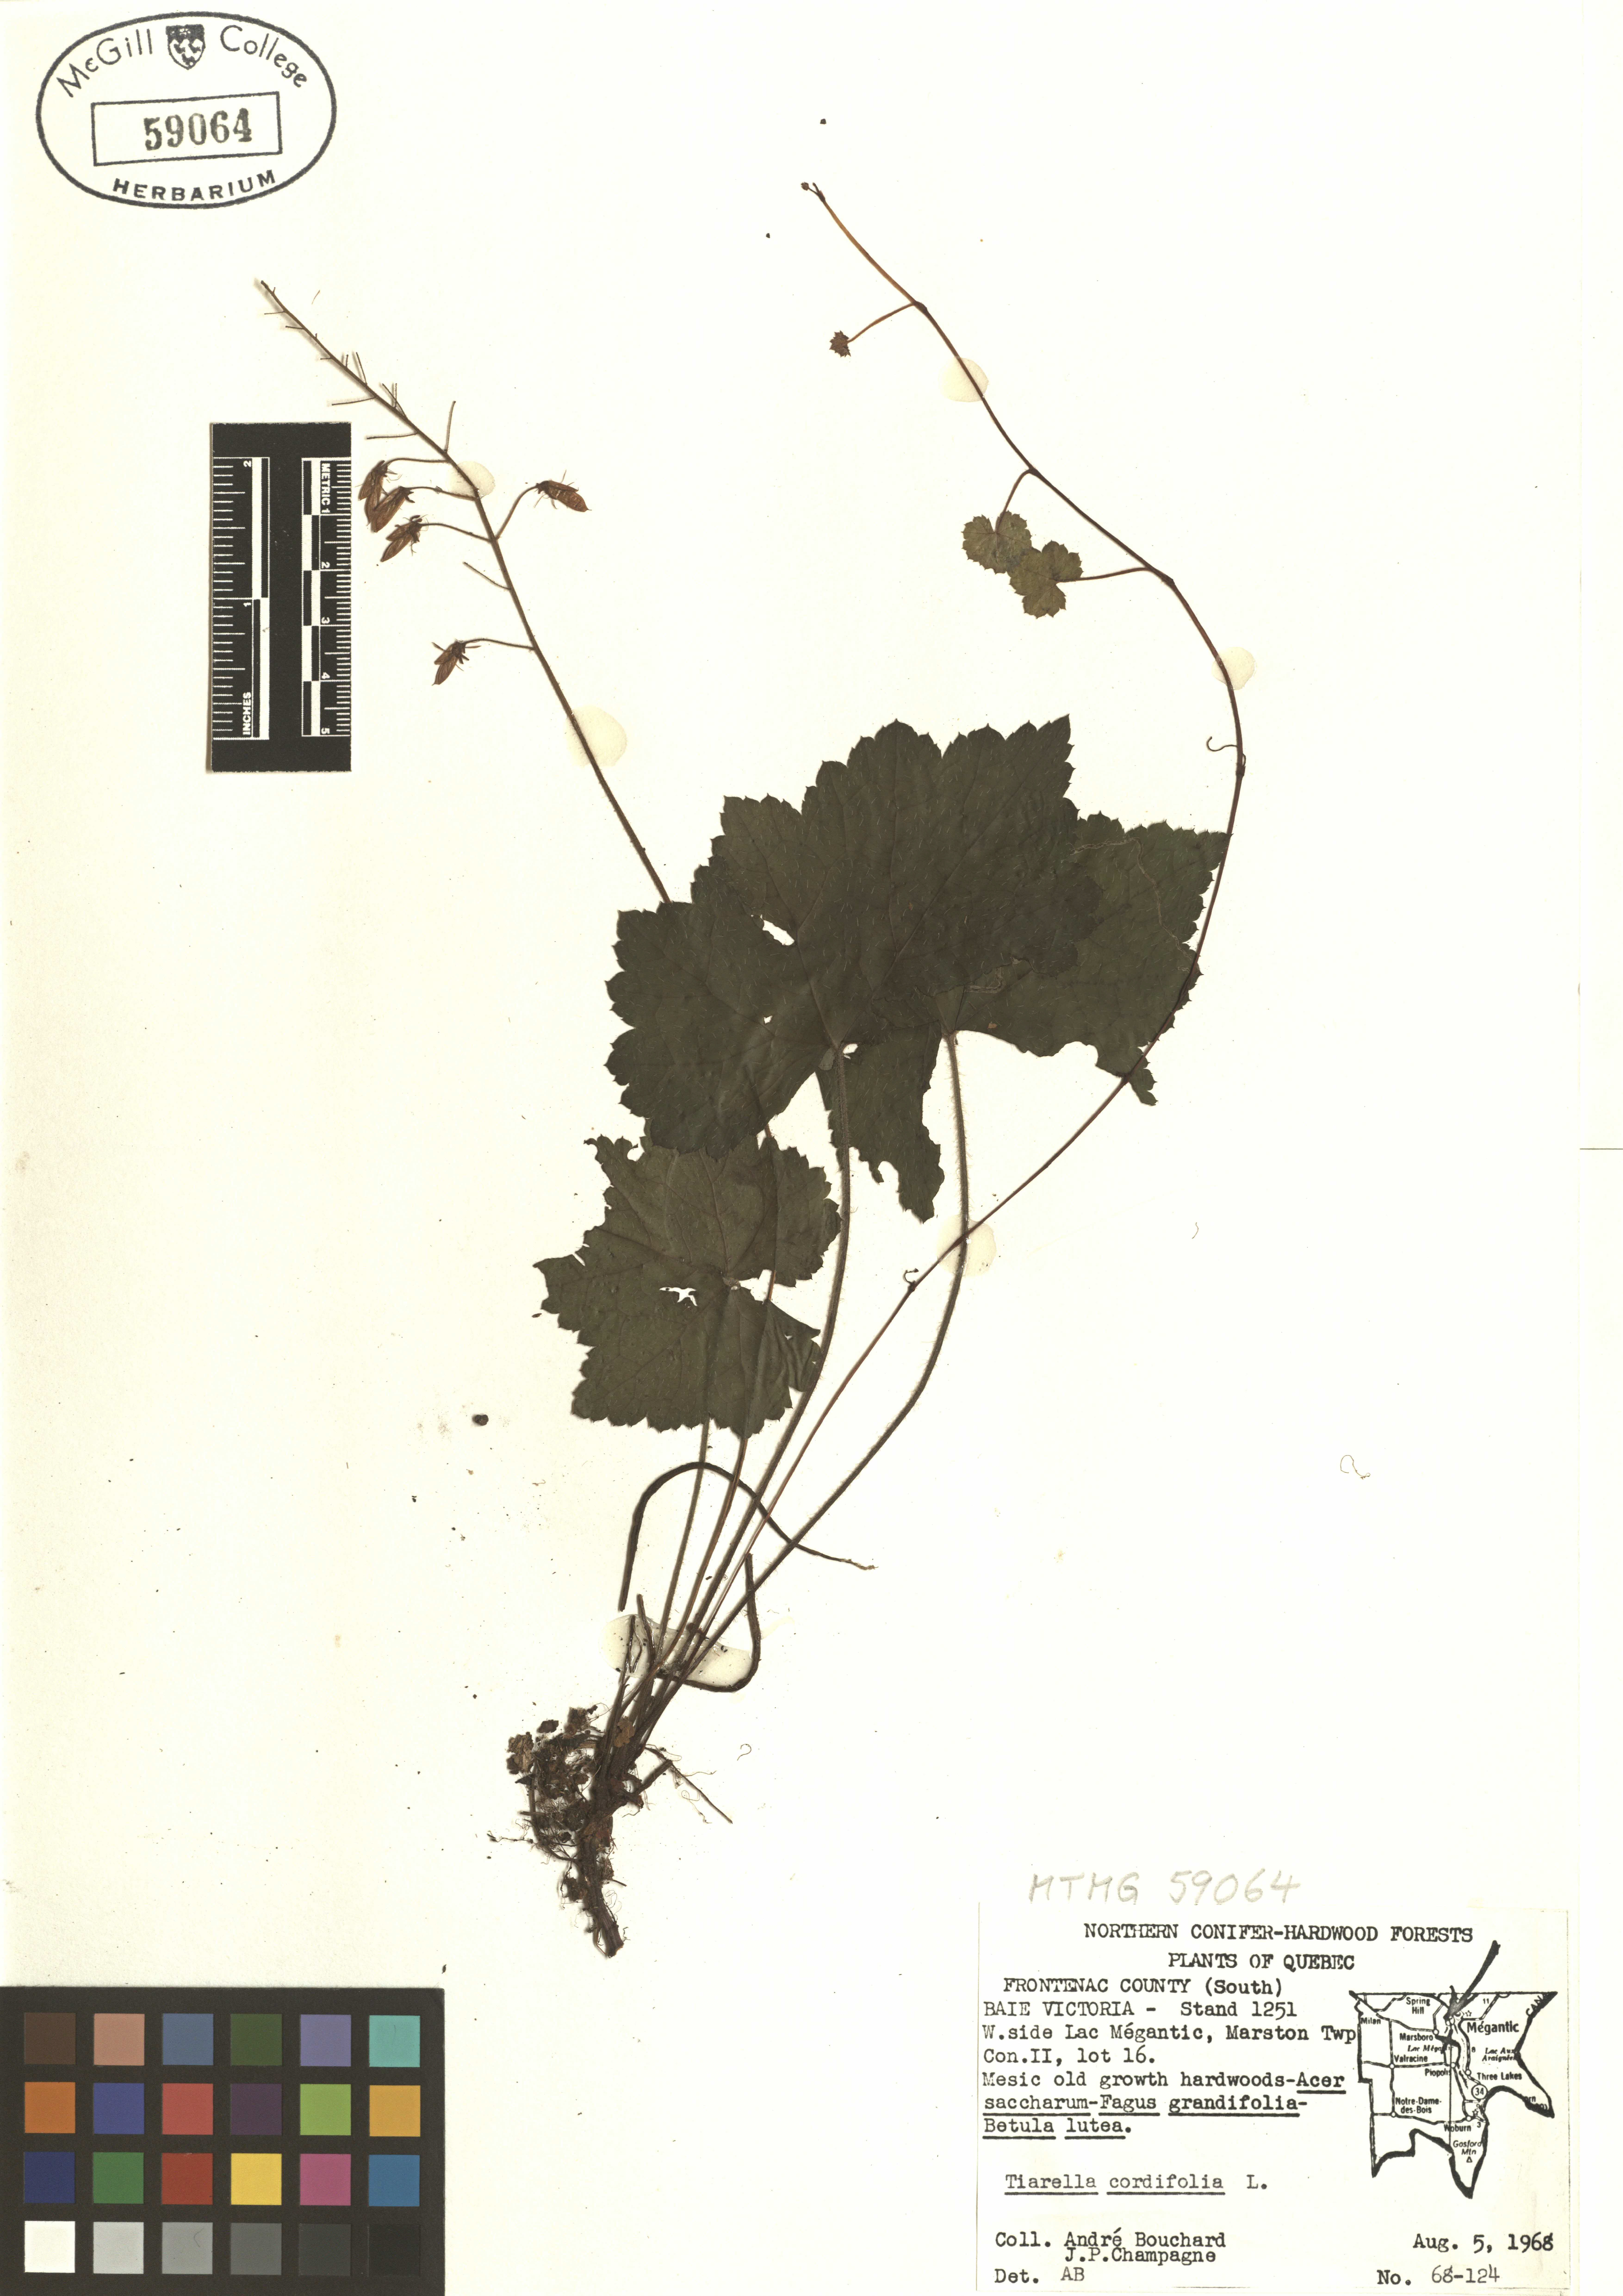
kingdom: Plantae
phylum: Tracheophyta
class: Magnoliopsida
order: Saxifragales
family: Saxifragaceae
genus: Tiarella
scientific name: Tiarella cordifolia
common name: Foamflower
